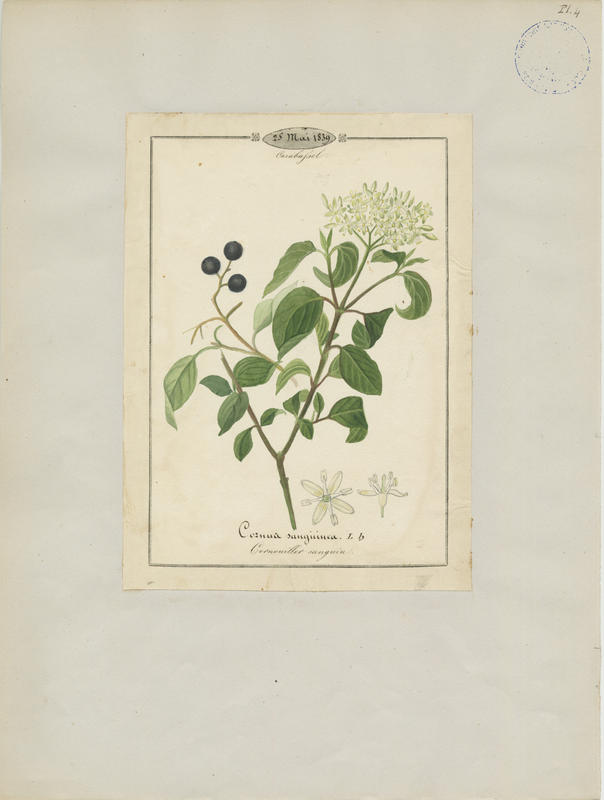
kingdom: Plantae
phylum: Tracheophyta
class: Magnoliopsida
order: Cornales
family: Cornaceae
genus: Cornus
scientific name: Cornus sanguinea
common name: Dogwood
